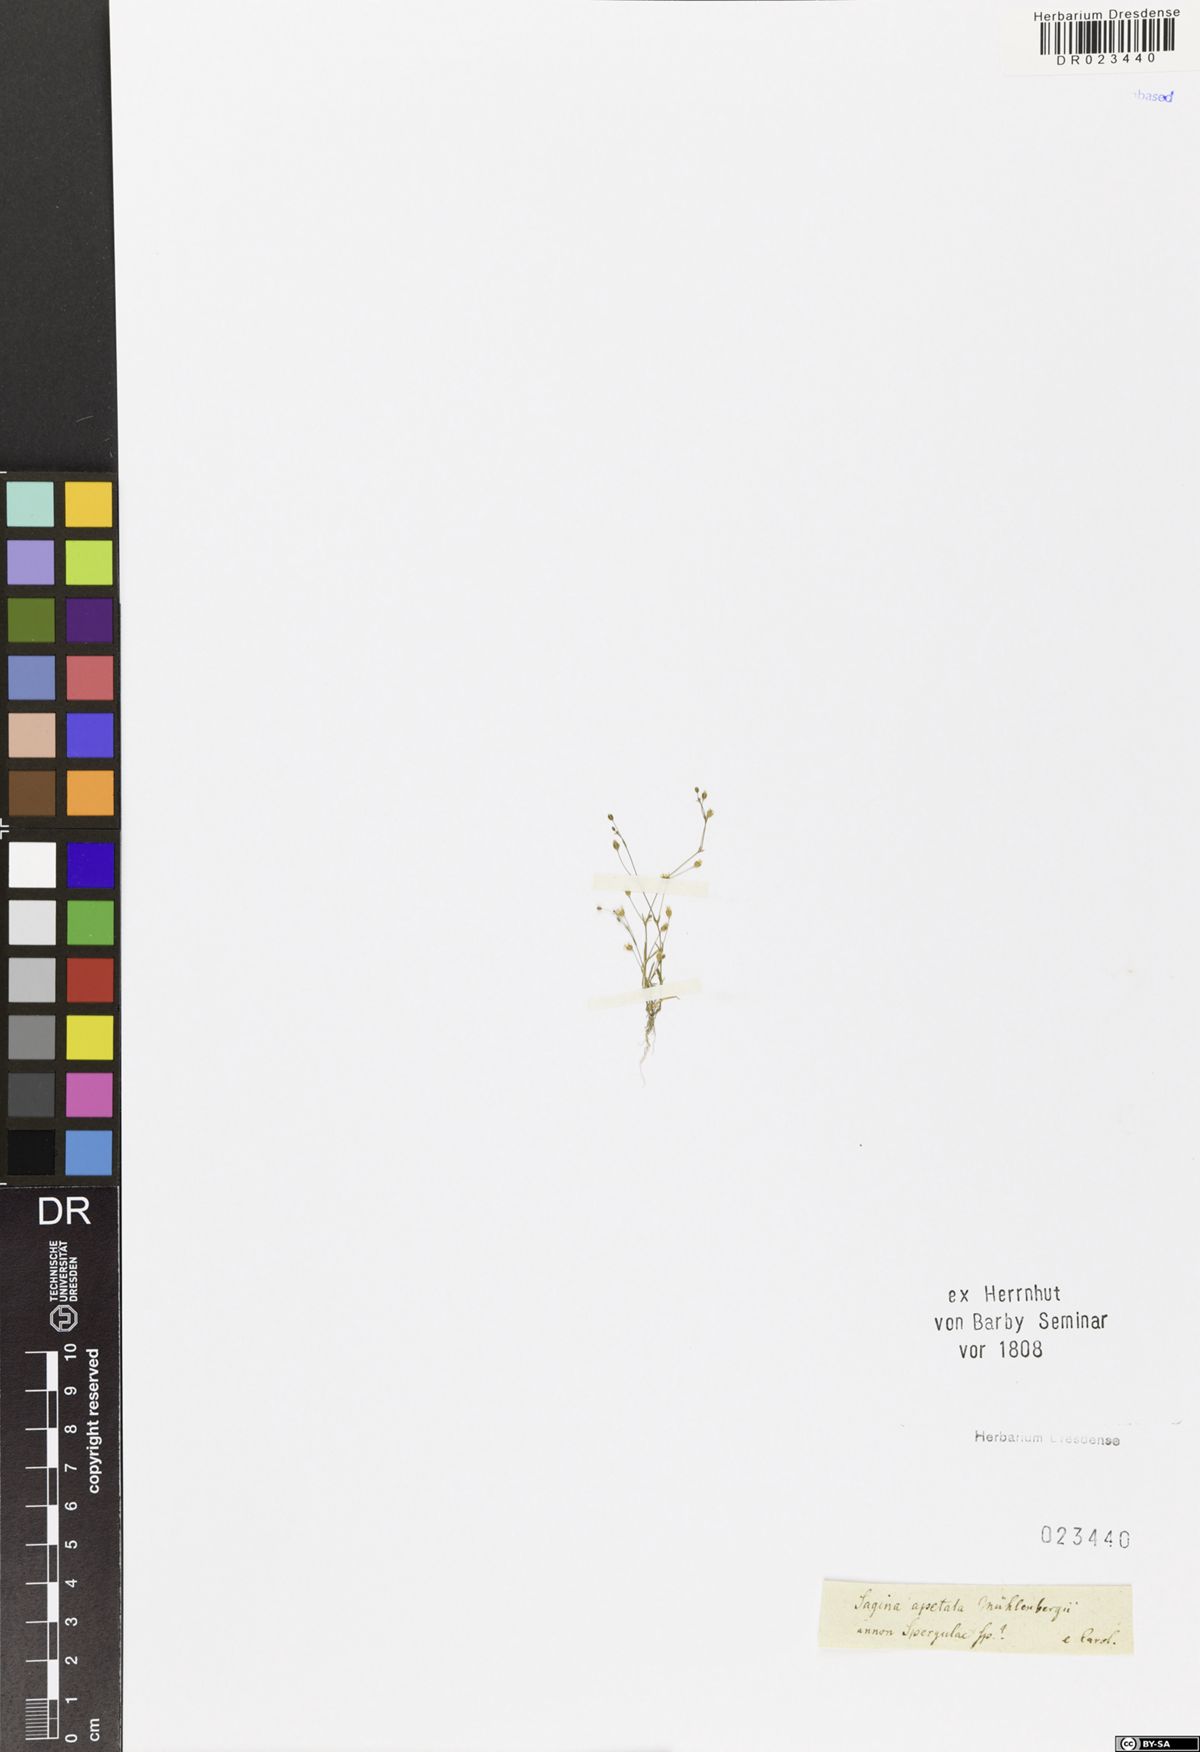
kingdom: Plantae
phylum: Tracheophyta
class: Magnoliopsida
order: Caryophyllales
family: Caryophyllaceae
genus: Sagina
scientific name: Sagina apetala
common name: Annual pearlwort
